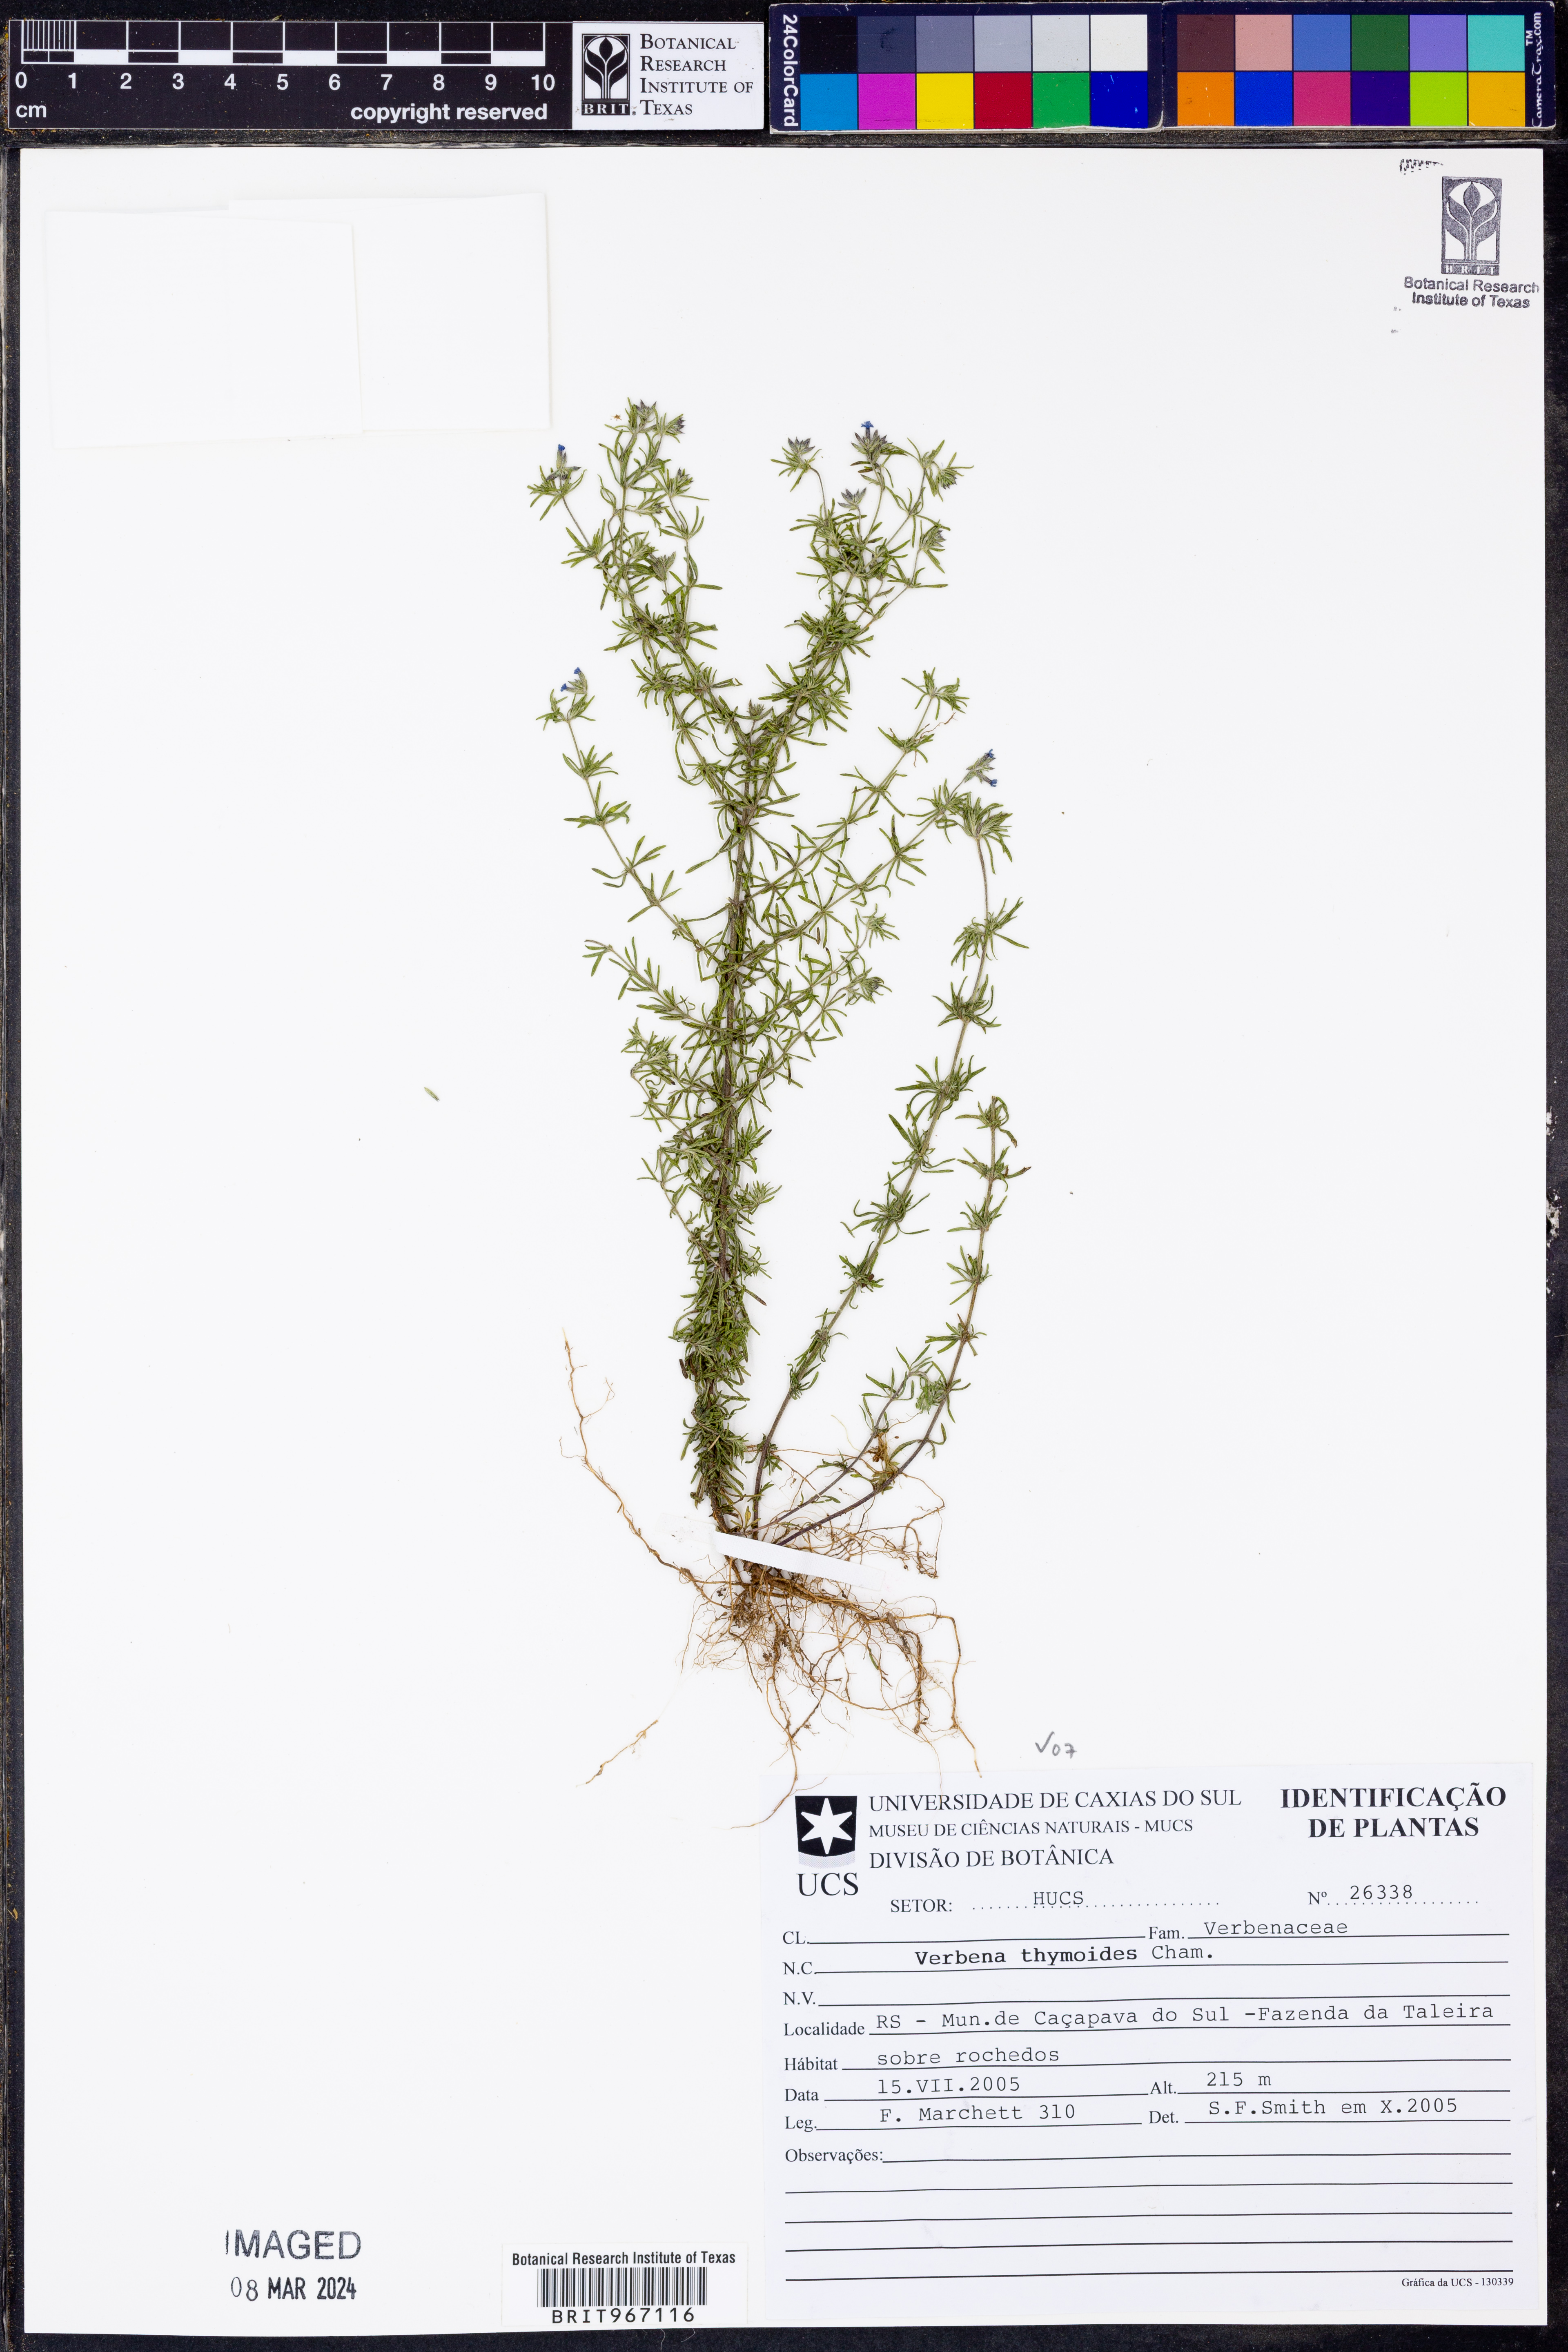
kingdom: Plantae
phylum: Tracheophyta
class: Magnoliopsida
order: Lamiales
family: Verbenaceae
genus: Verbena
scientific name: Verbena
